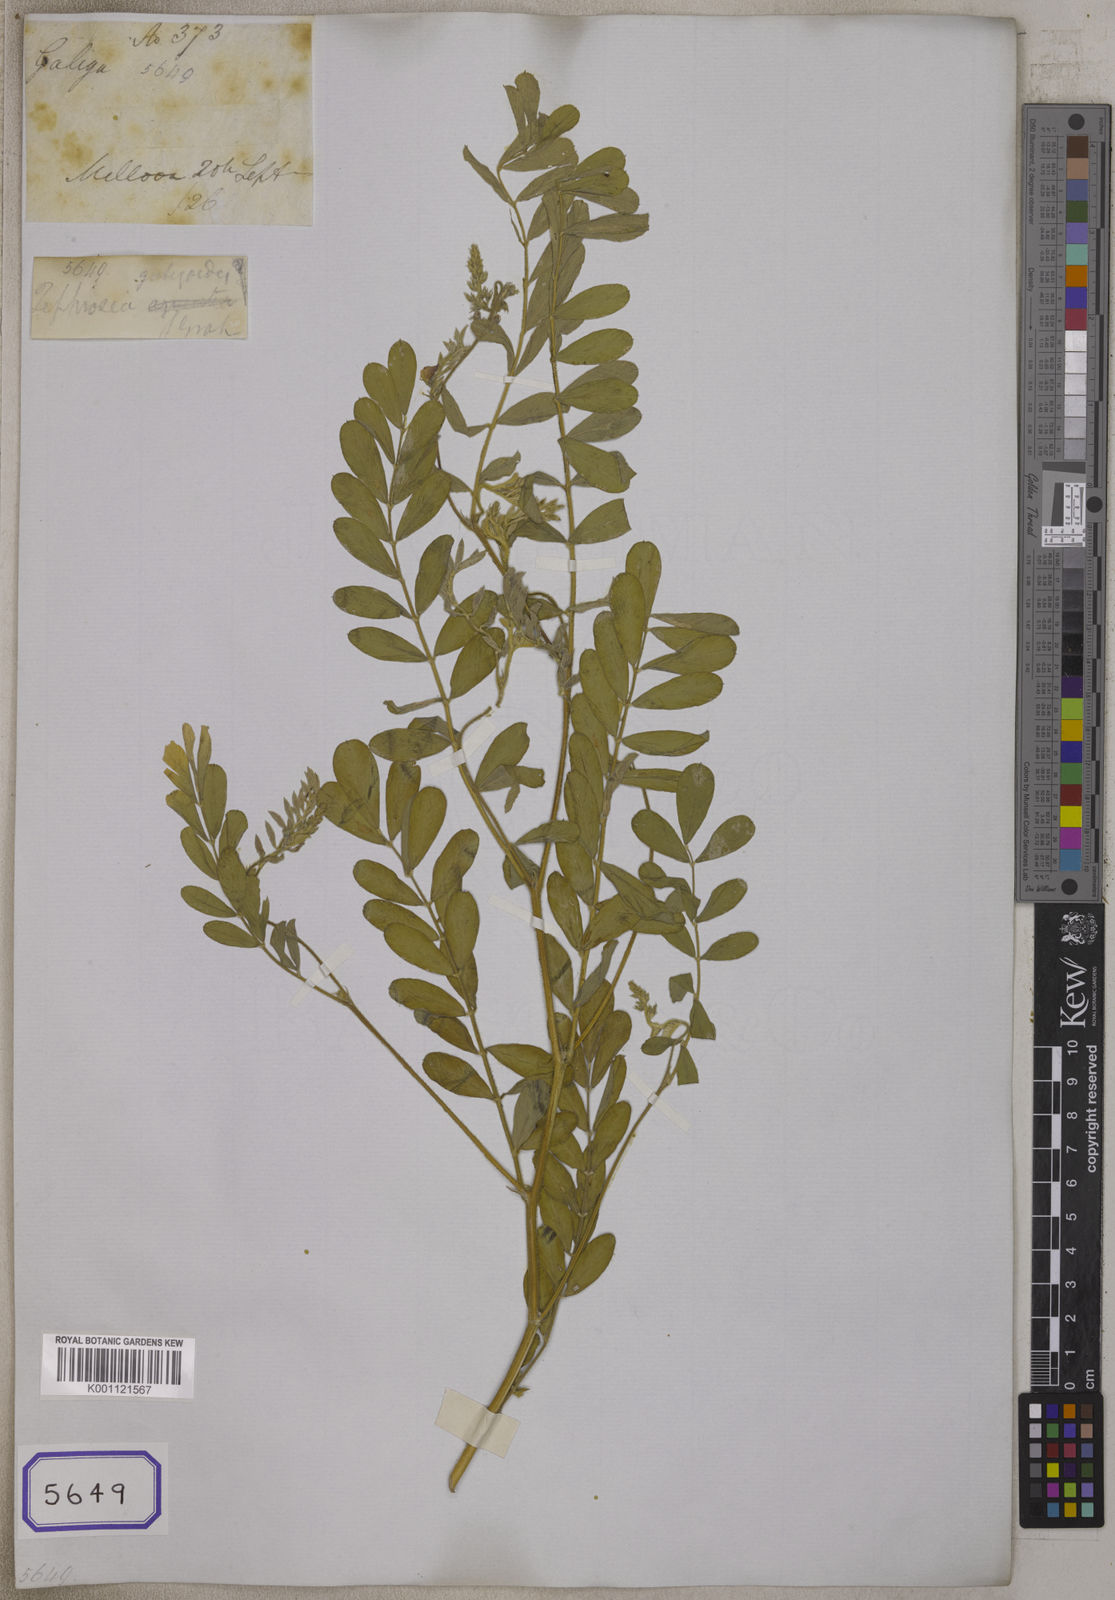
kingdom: Plantae
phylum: Tracheophyta
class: Magnoliopsida
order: Fabales
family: Fabaceae
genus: Tephrosia
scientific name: Tephrosia
